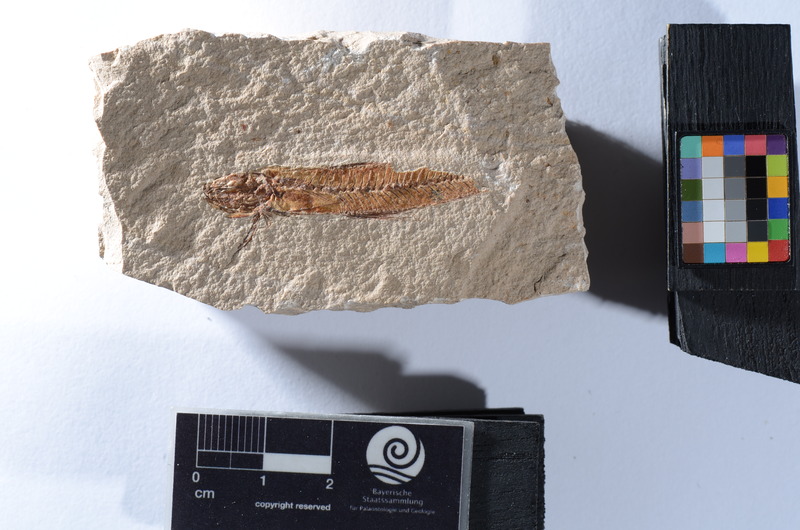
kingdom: Animalia
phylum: Chordata
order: Zeiformes
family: Zeidae
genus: Zenopsis
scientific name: Zenopsis clarus
